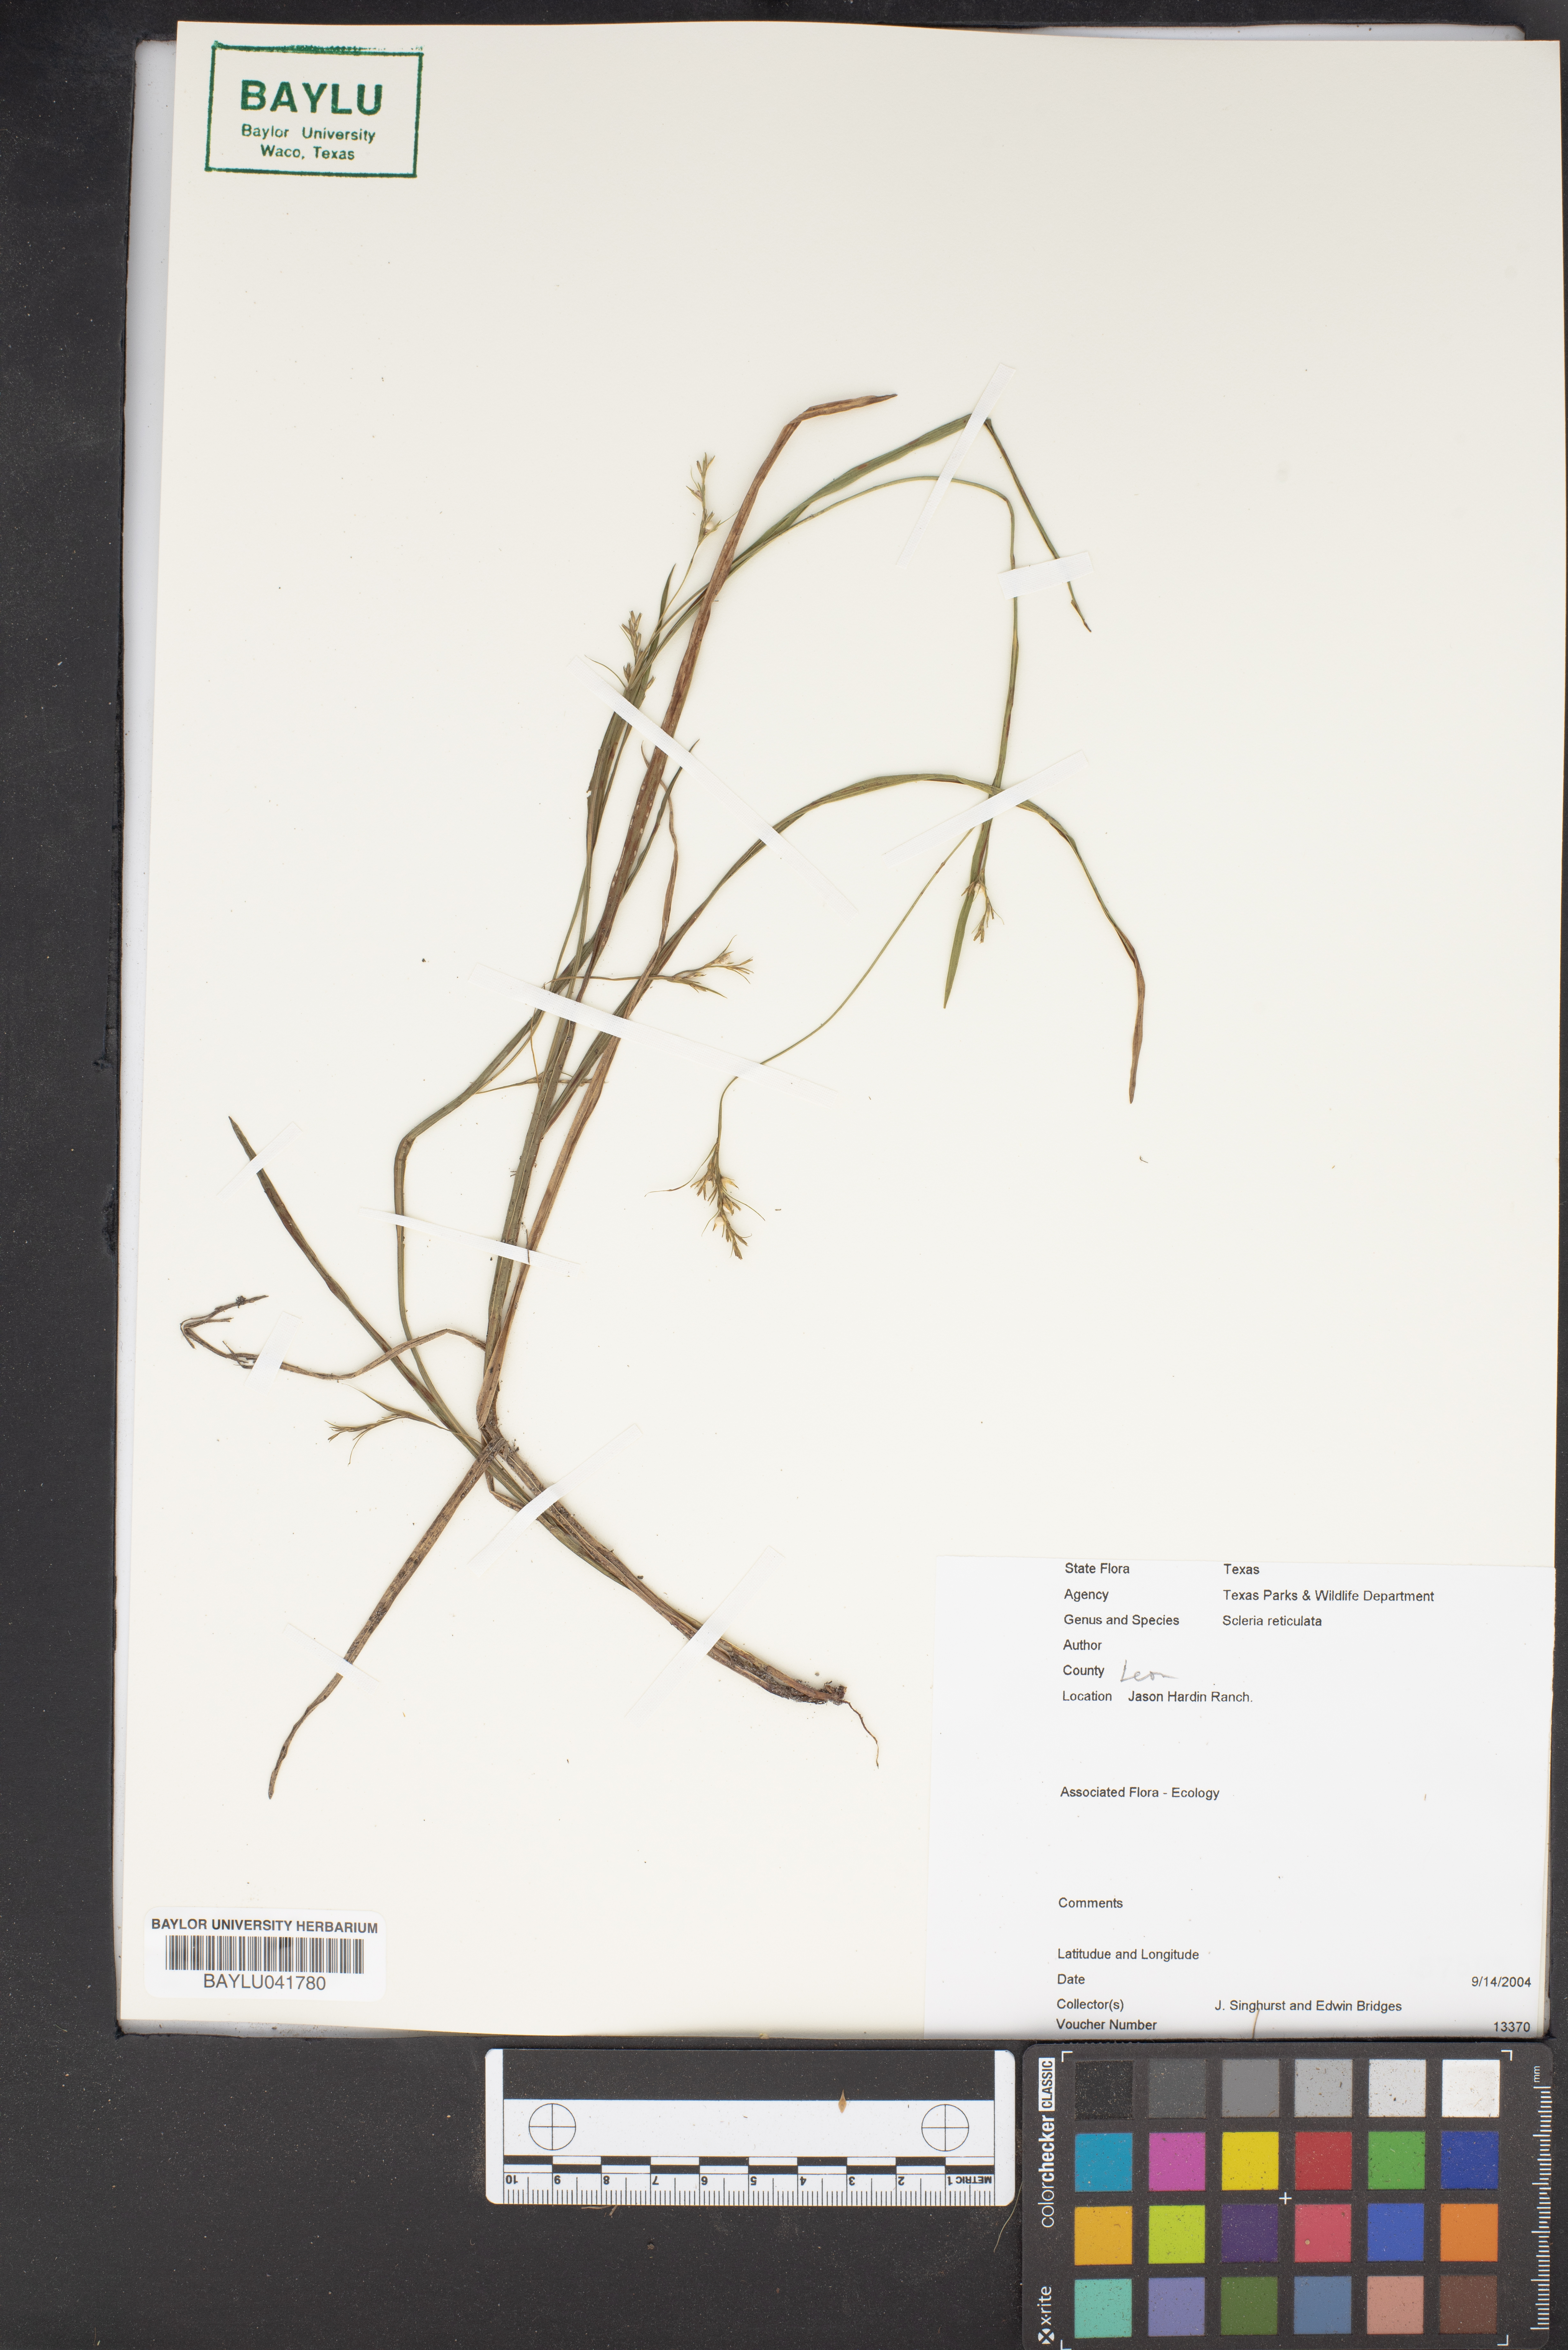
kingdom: Plantae
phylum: Tracheophyta
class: Liliopsida
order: Poales
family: Cyperaceae
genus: Diplacrum
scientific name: Diplacrum reticulatum
